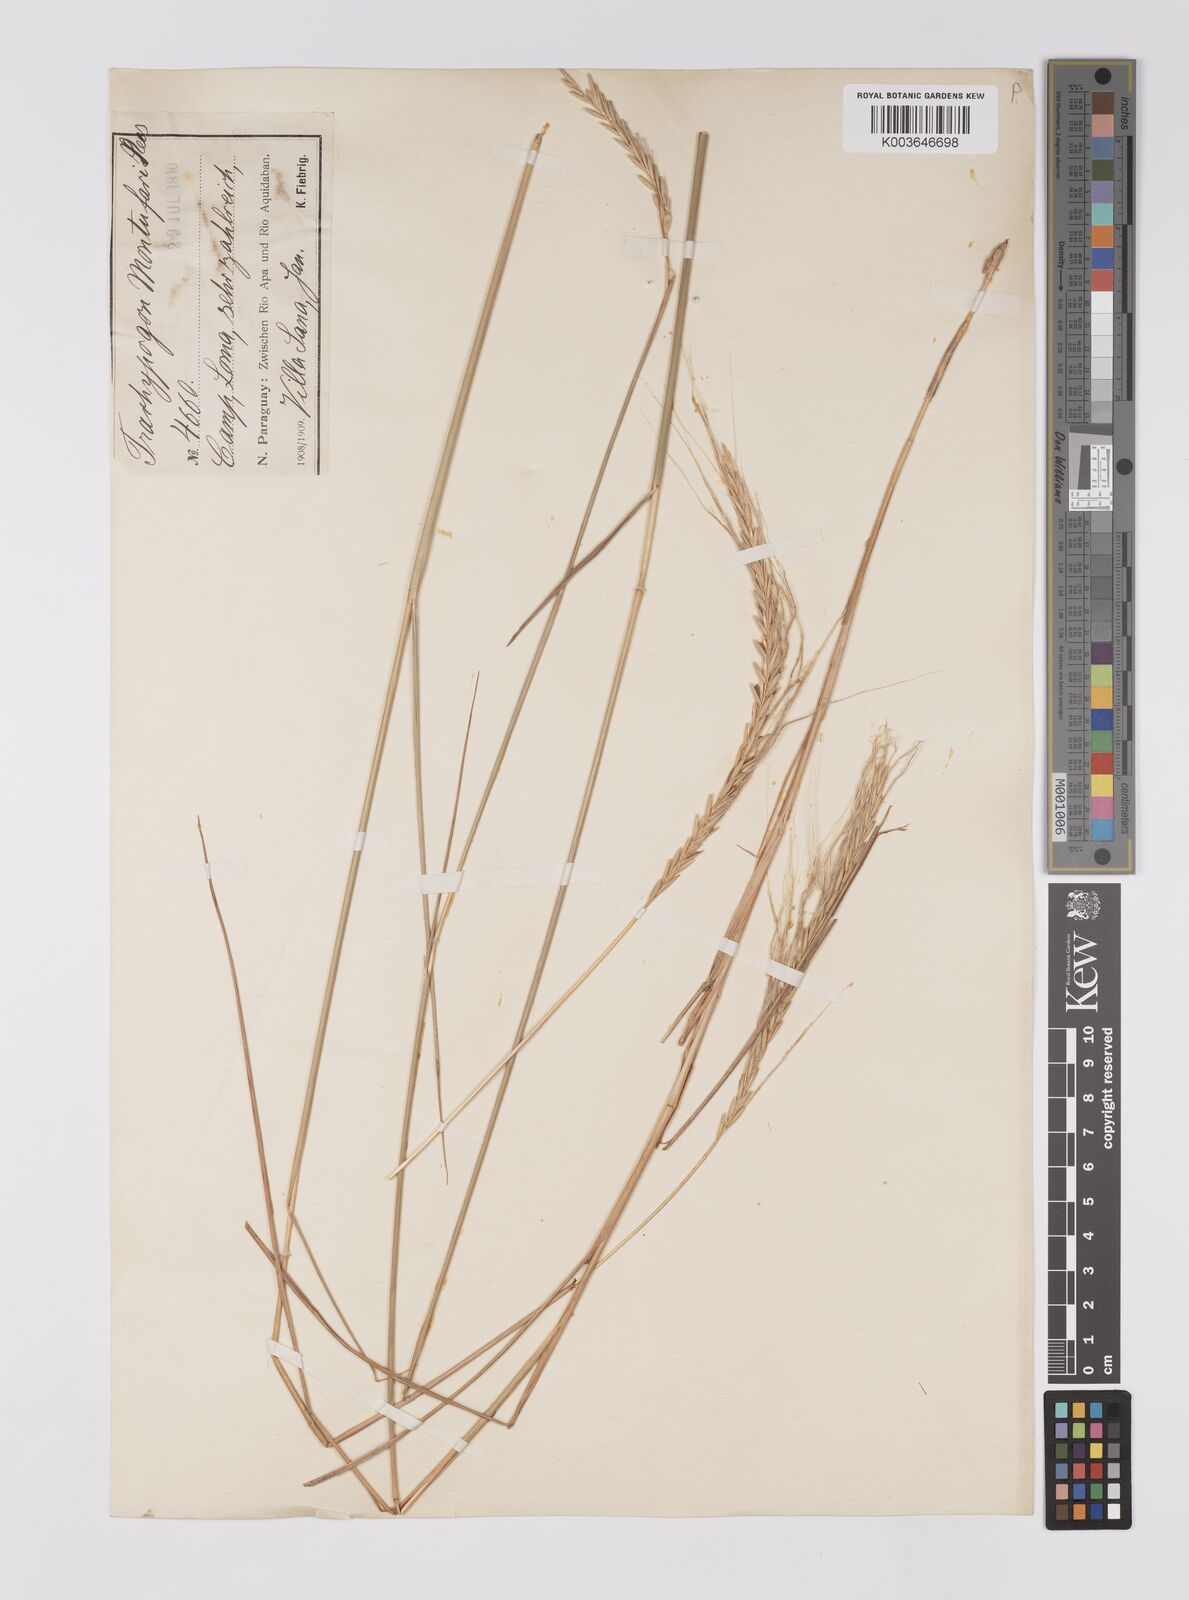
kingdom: Plantae
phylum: Tracheophyta
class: Liliopsida
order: Poales
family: Poaceae
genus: Trachypogon
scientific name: Trachypogon spicatus
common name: Crinkle-awn
